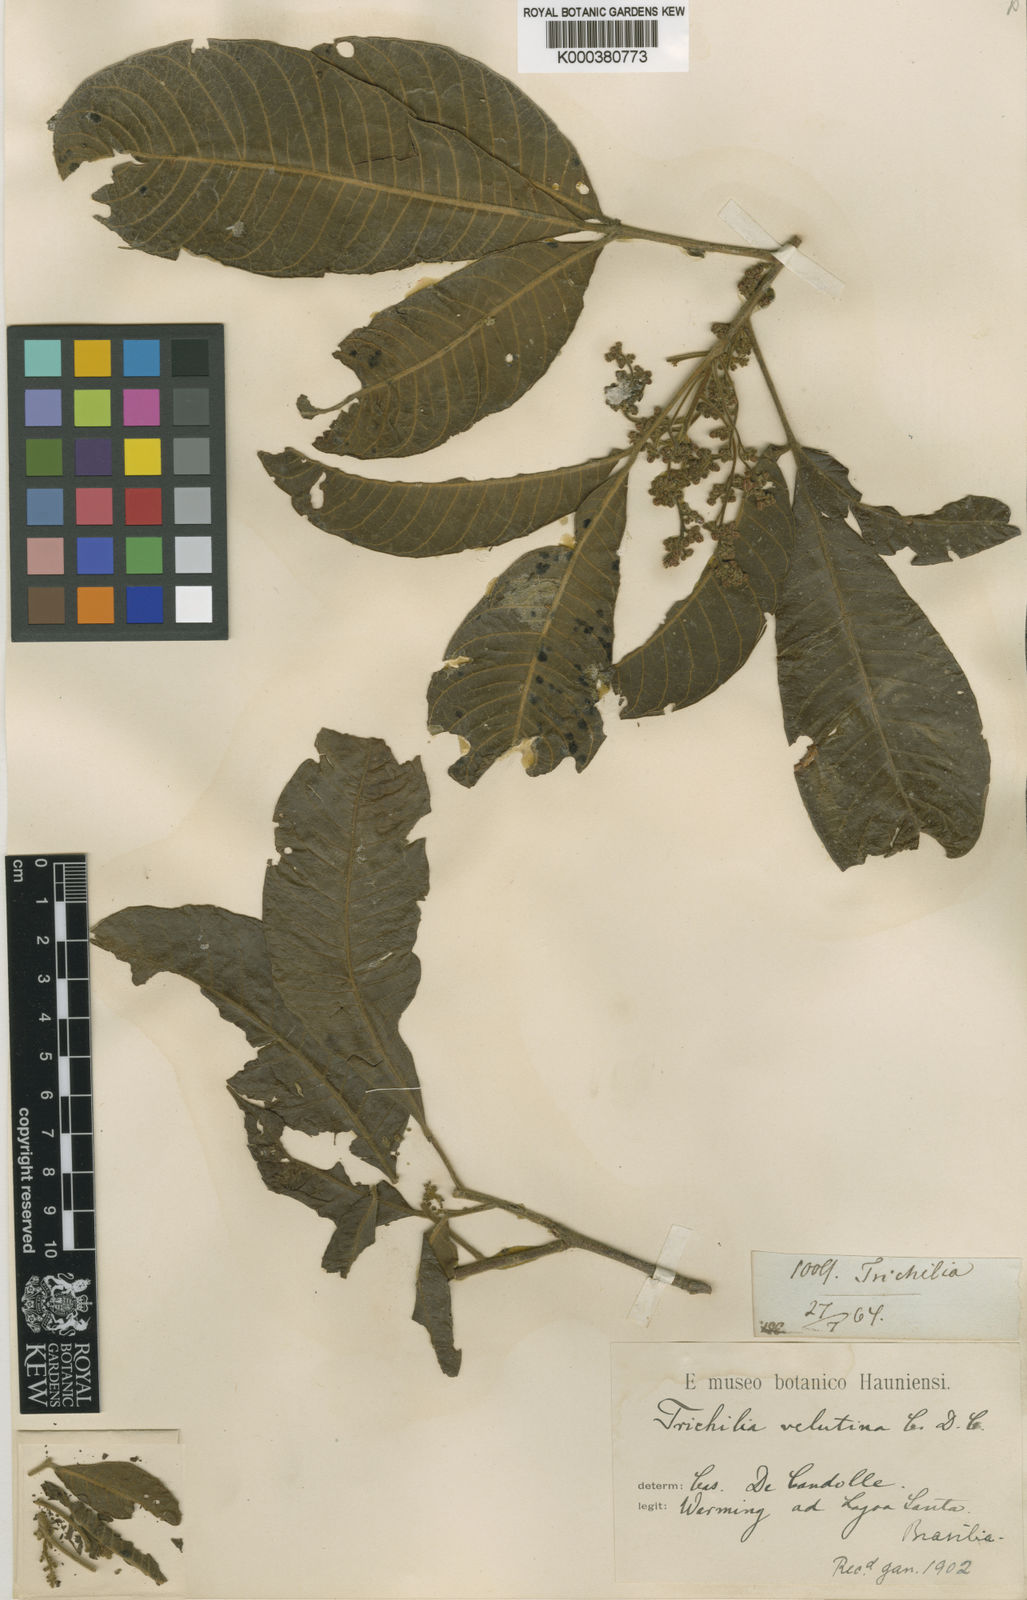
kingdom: Plantae
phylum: Tracheophyta
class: Magnoliopsida
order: Sapindales
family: Meliaceae
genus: Trichilia
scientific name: Trichilia claussenii
